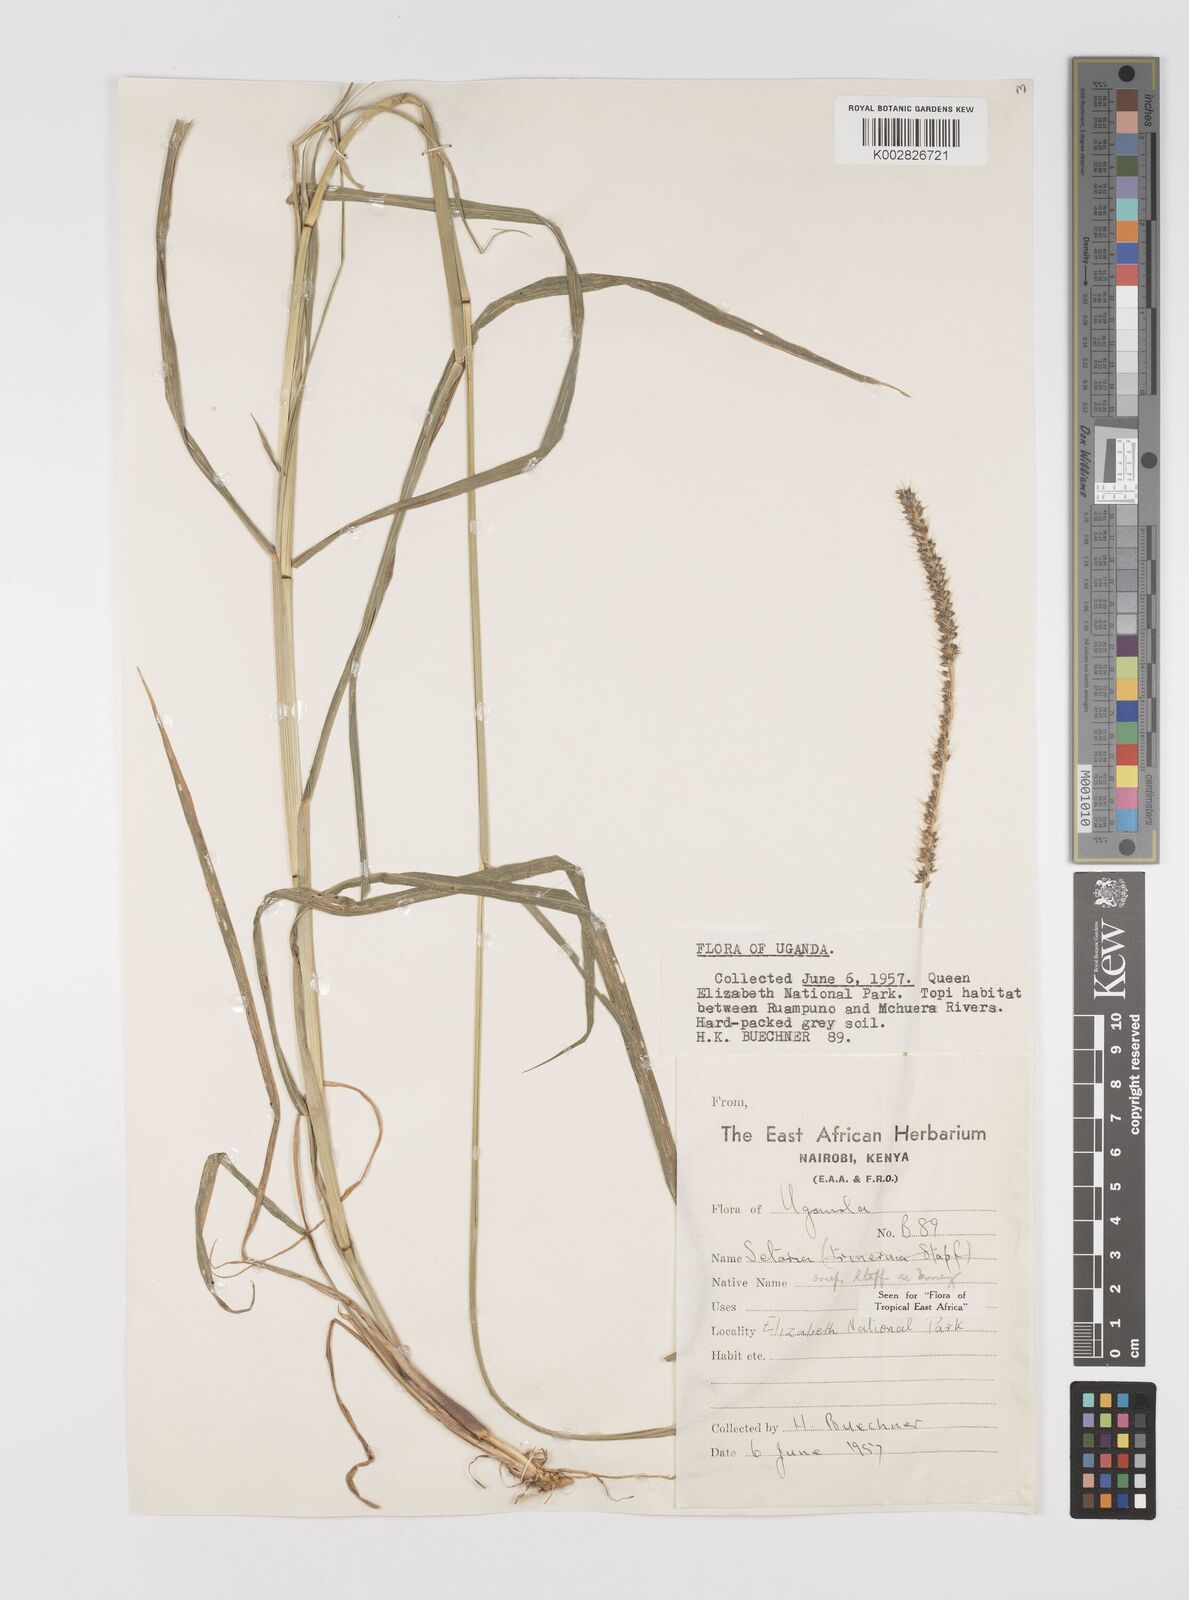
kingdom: Plantae
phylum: Tracheophyta
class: Liliopsida
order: Poales
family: Poaceae
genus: Setaria
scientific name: Setaria sphacelata
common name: African bristlegrass
